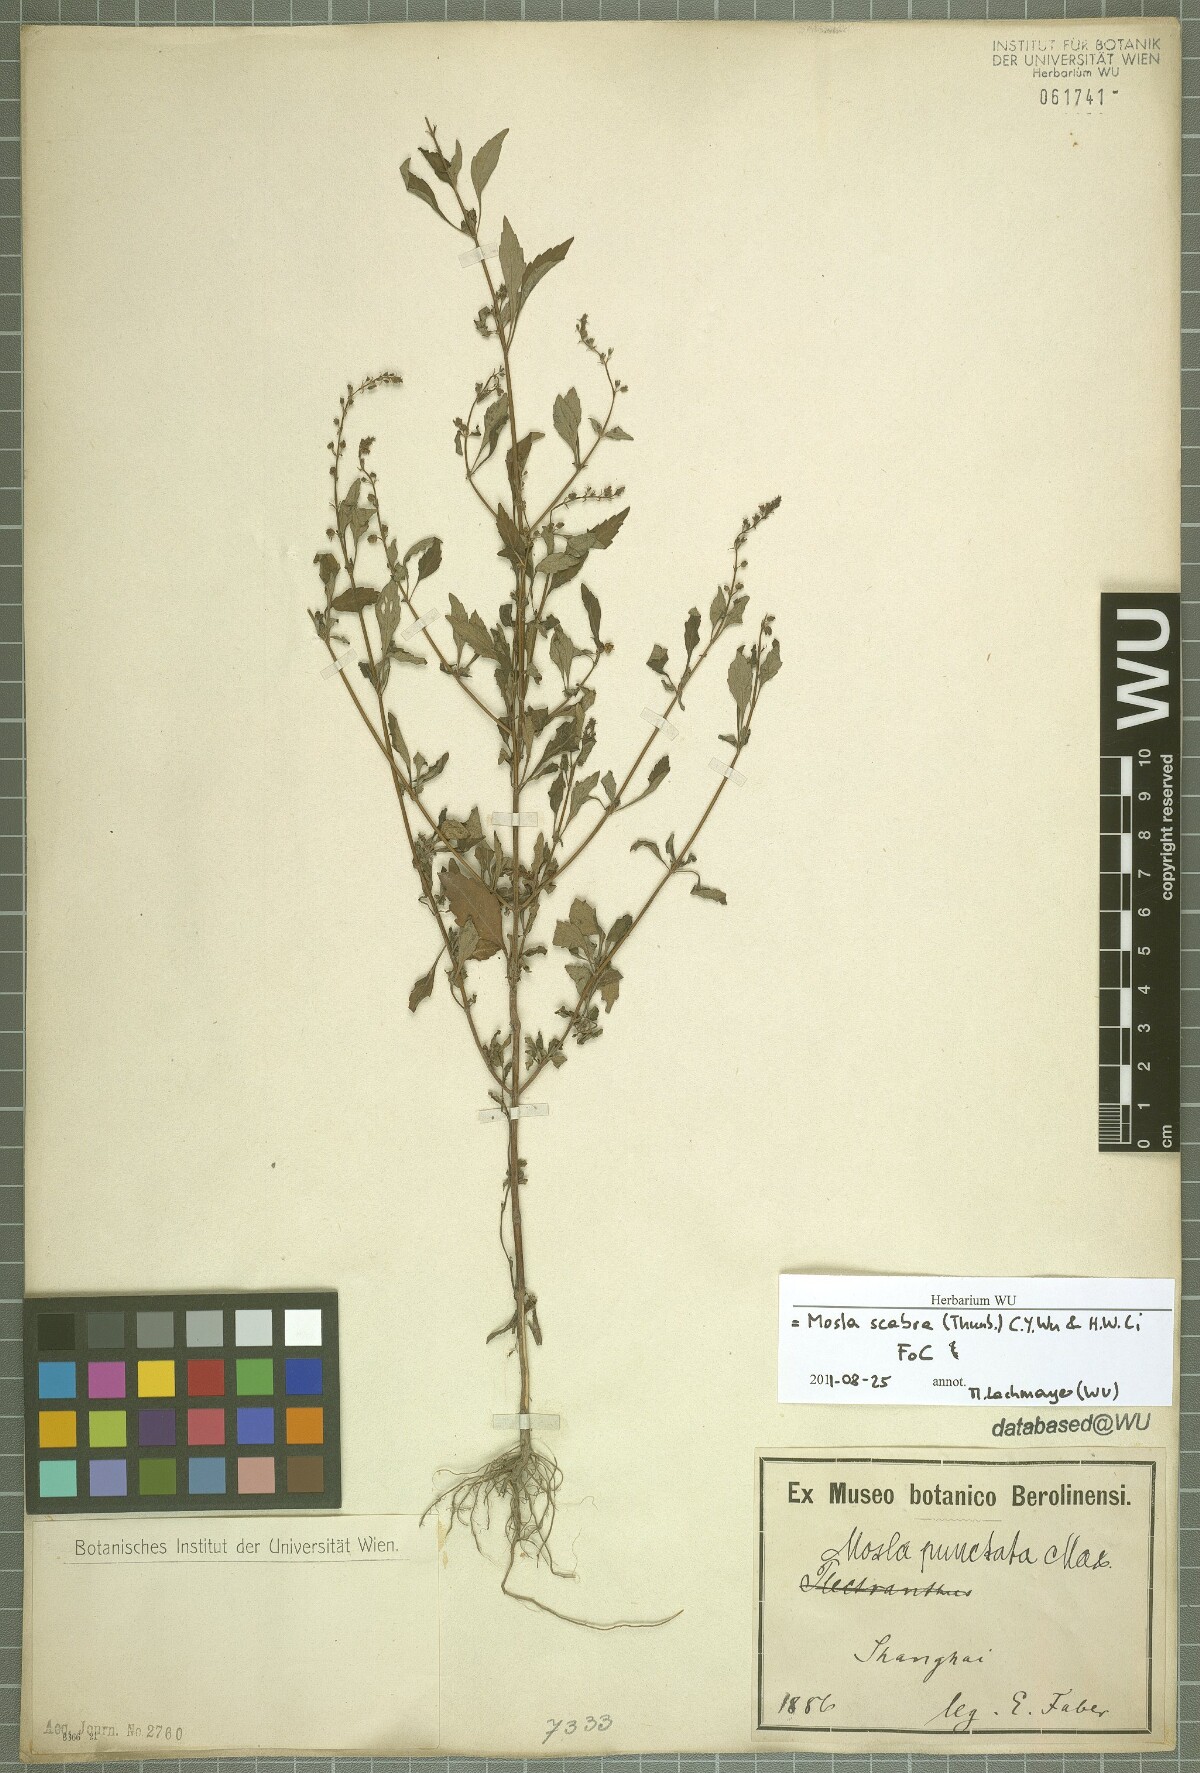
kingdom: Plantae
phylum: Tracheophyta
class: Magnoliopsida
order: Lamiales
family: Lamiaceae
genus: Mosla
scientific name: Mosla scabra
